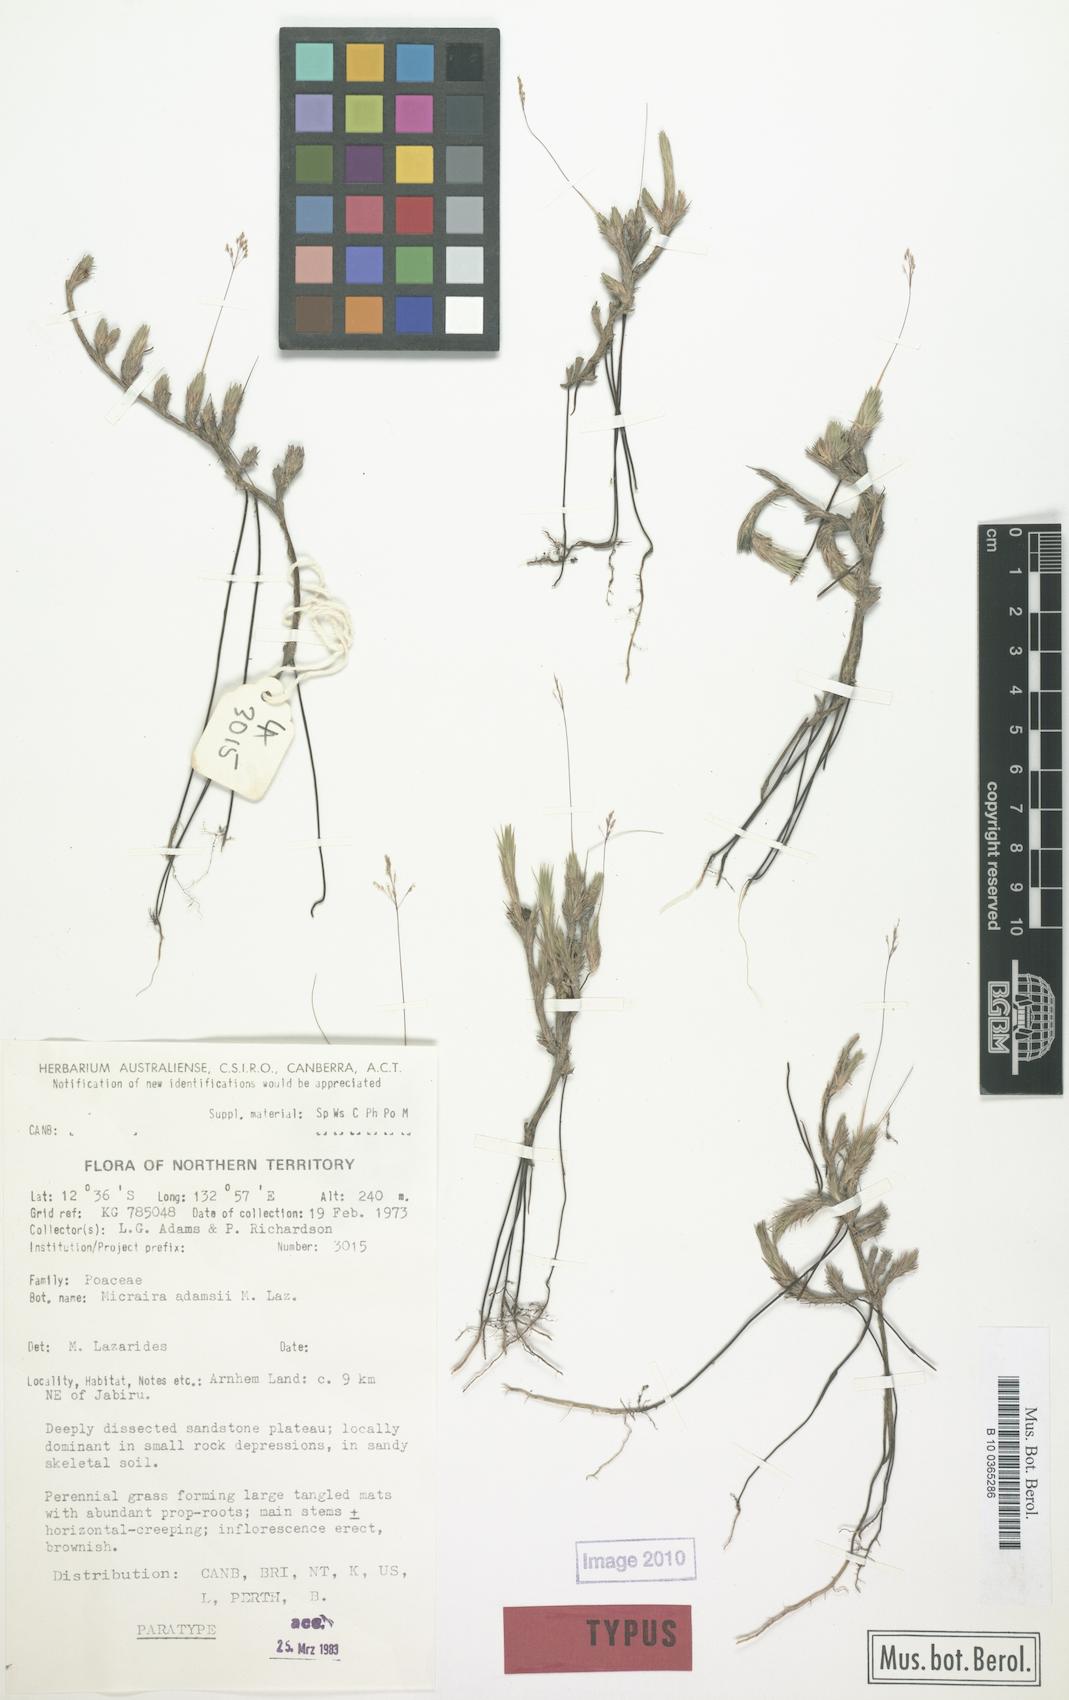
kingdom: Plantae
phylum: Tracheophyta
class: Liliopsida
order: Poales
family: Poaceae
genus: Micraira
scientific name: Micraira adamsii
